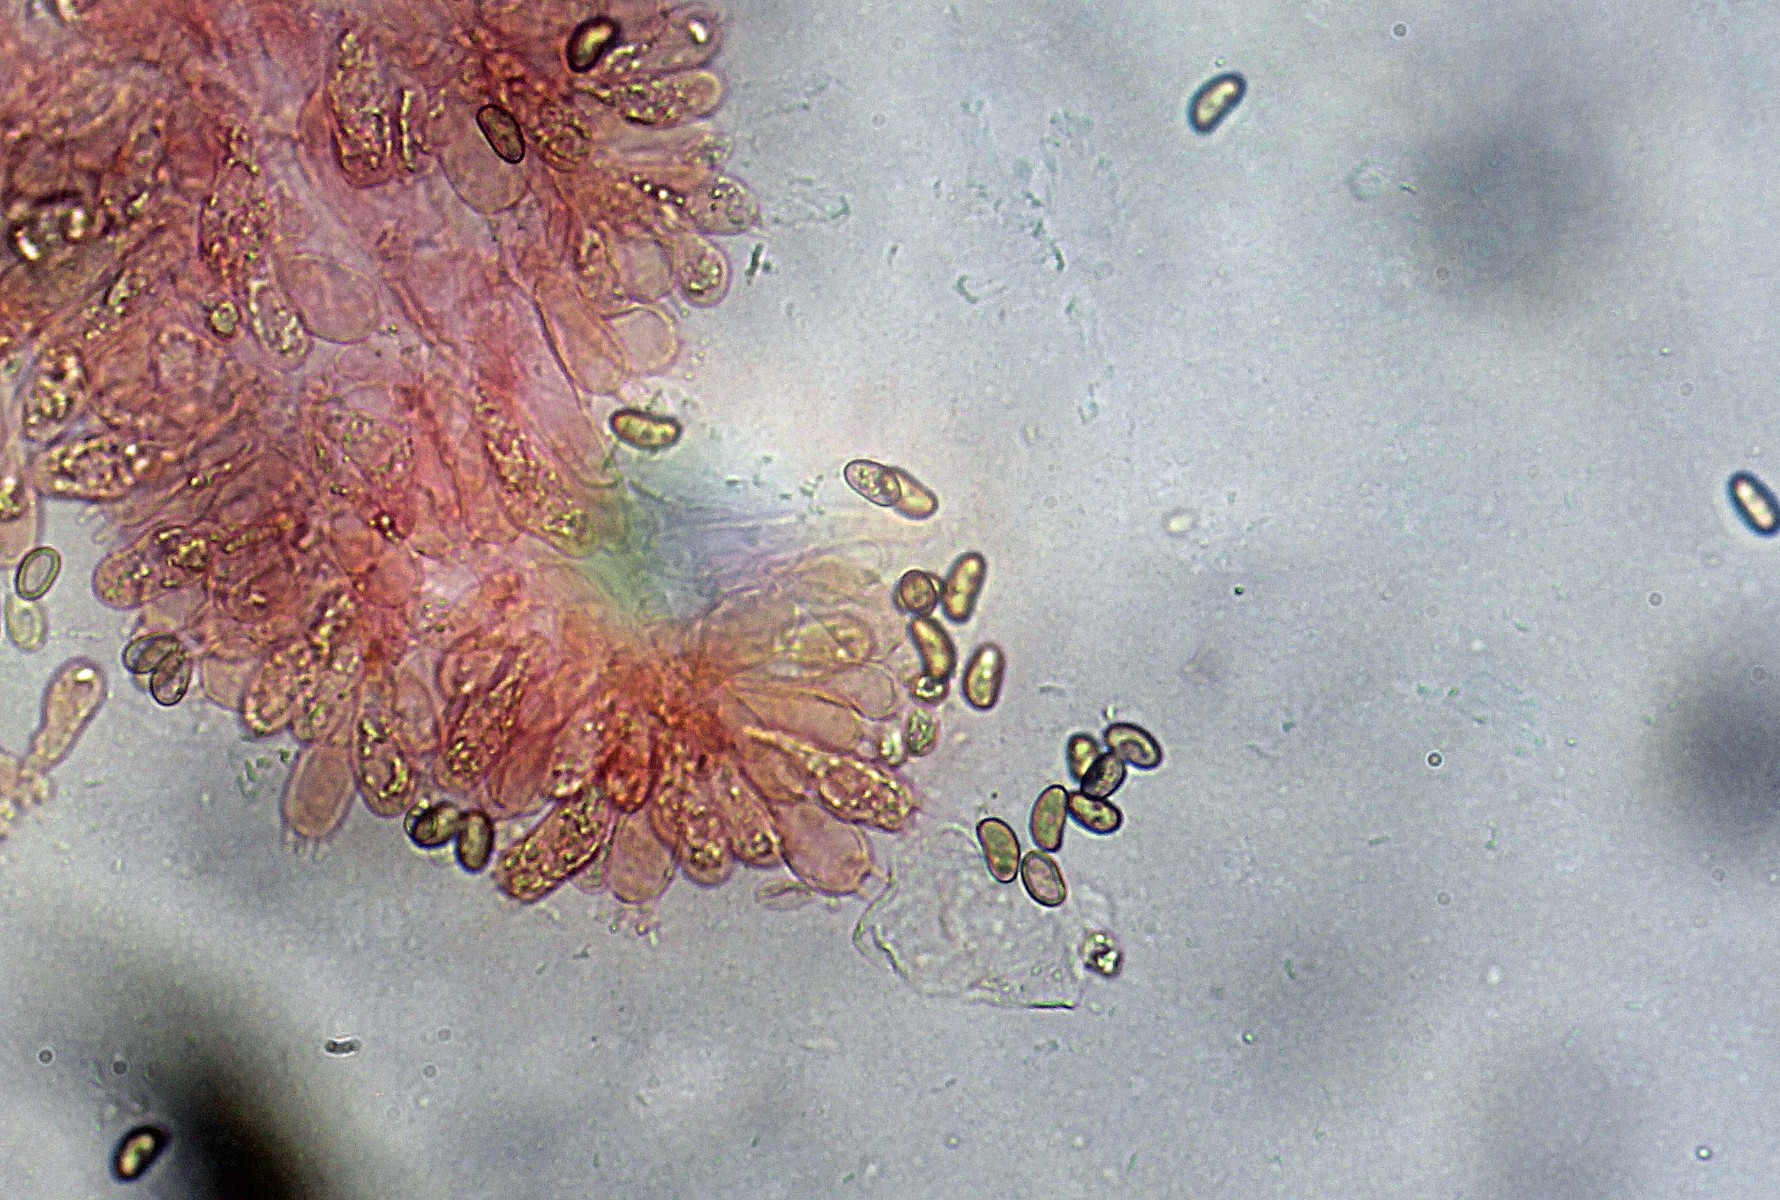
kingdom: Fungi
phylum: Basidiomycota
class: Agaricomycetes
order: Agaricales
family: Inocybaceae
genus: Inosperma
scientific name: Inosperma
